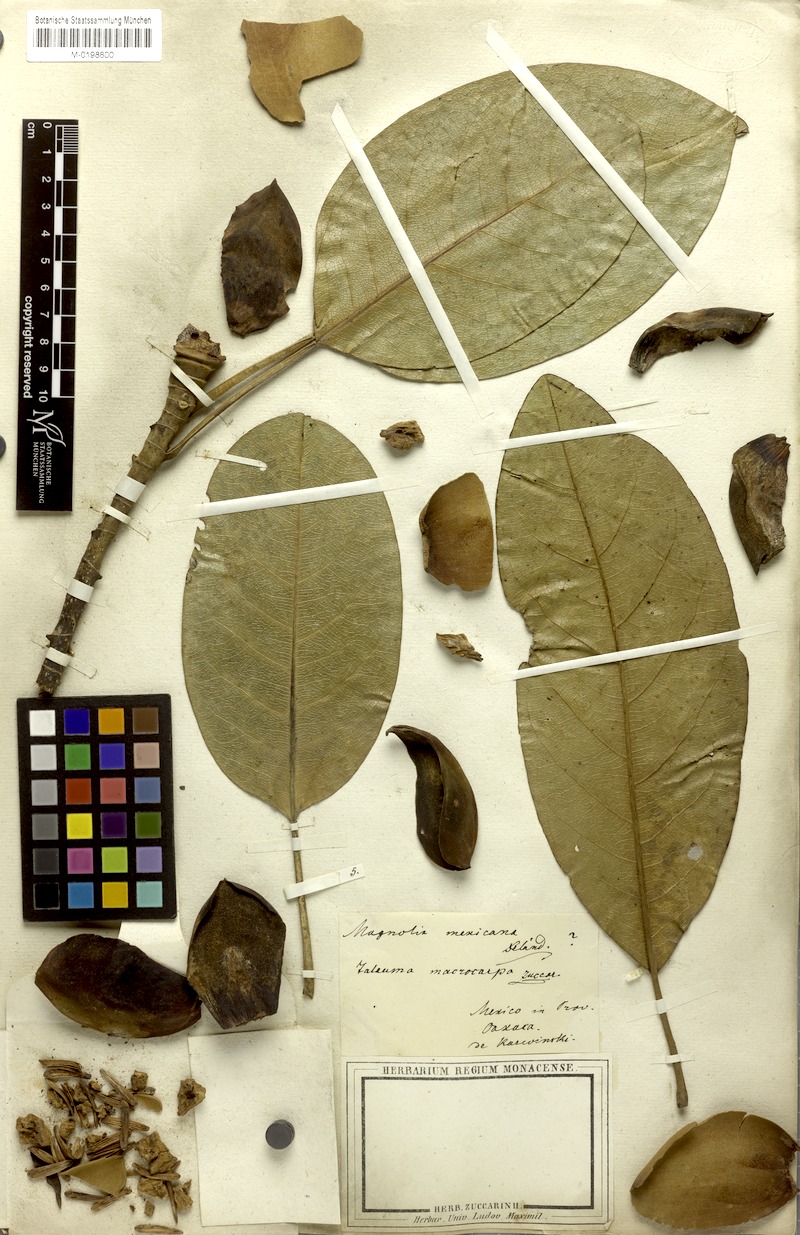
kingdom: Plantae
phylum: Tracheophyta
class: Magnoliopsida
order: Magnoliales
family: Magnoliaceae
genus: Magnolia
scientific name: Magnolia mexicana
